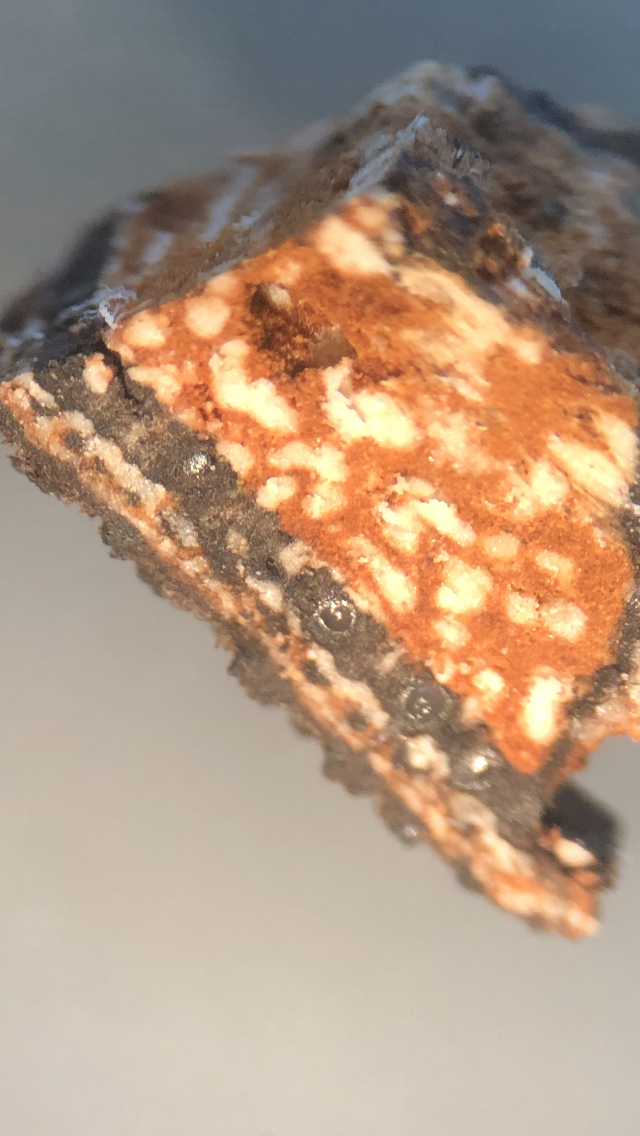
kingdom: Fungi
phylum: Ascomycota
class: Sordariomycetes
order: Xylariales
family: Diatrypaceae
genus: Eutypella
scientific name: Eutypella stellulata
